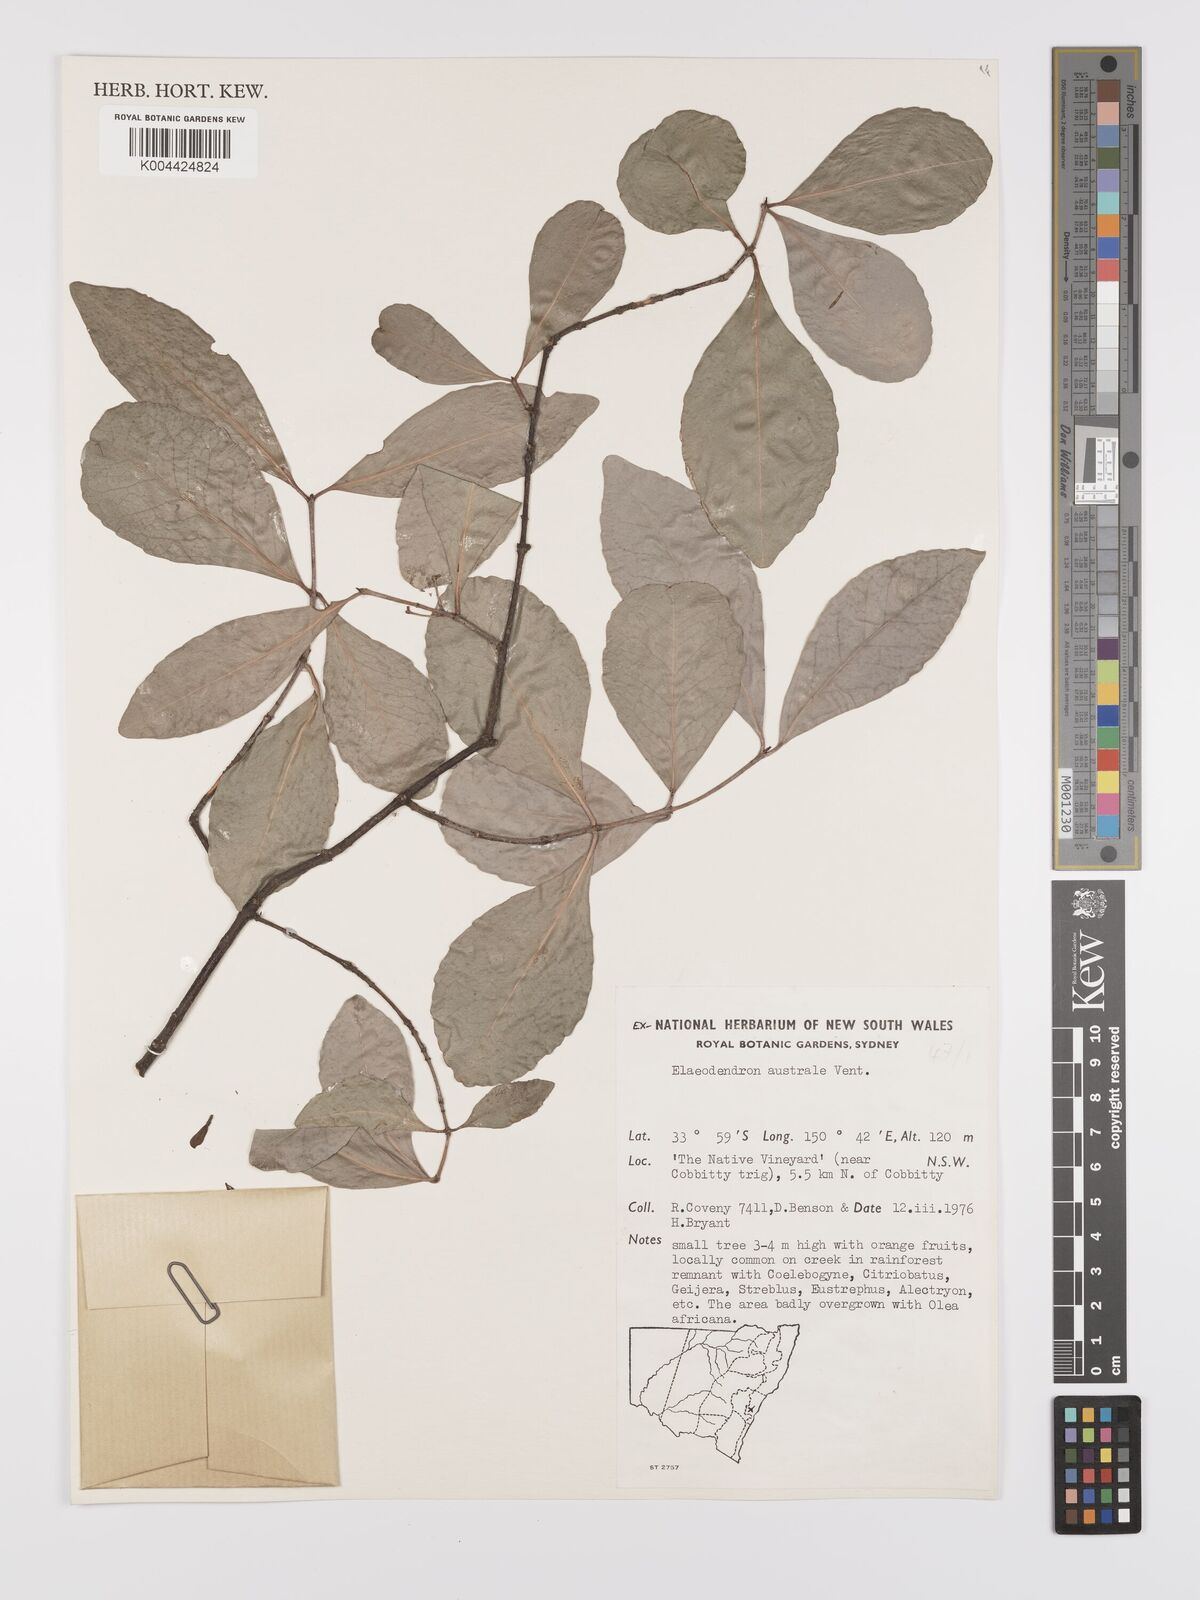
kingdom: Plantae
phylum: Tracheophyta
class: Magnoliopsida
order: Celastrales
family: Celastraceae
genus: Elaeodendron
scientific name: Elaeodendron australe
